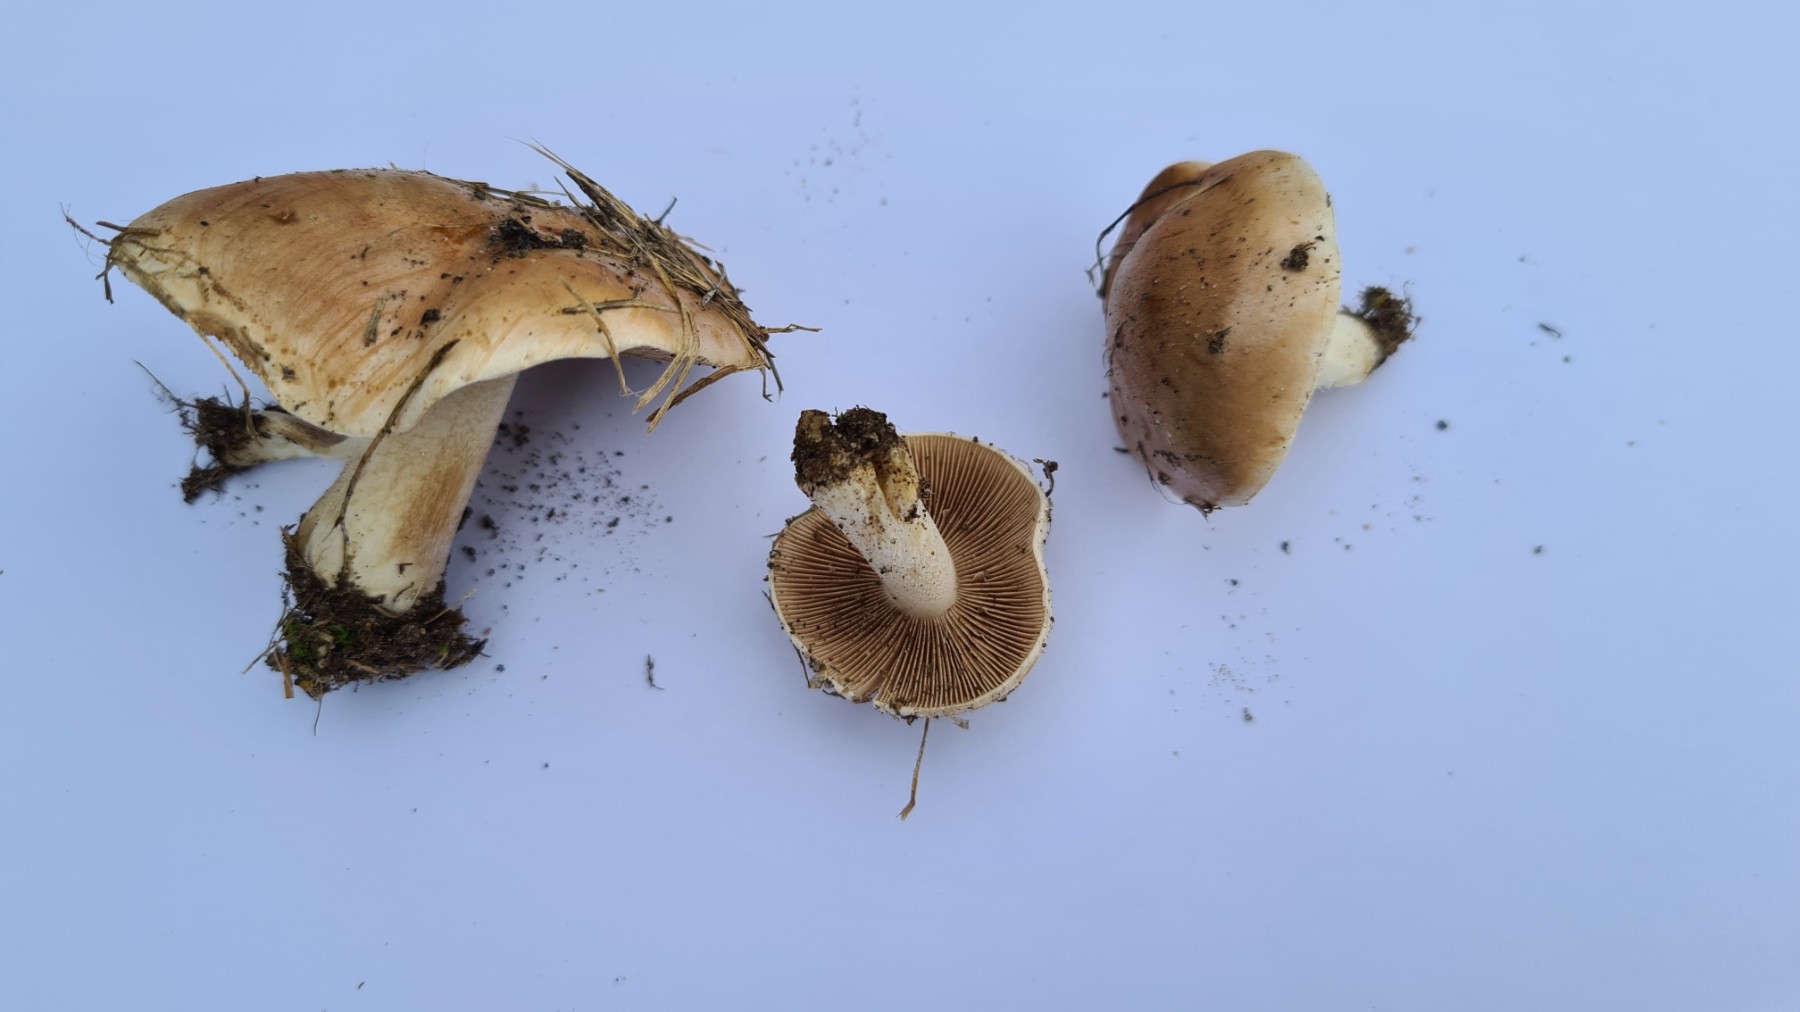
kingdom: Fungi
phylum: Basidiomycota
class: Agaricomycetes
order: Agaricales
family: Hymenogastraceae
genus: Hebeloma
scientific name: Hebeloma
